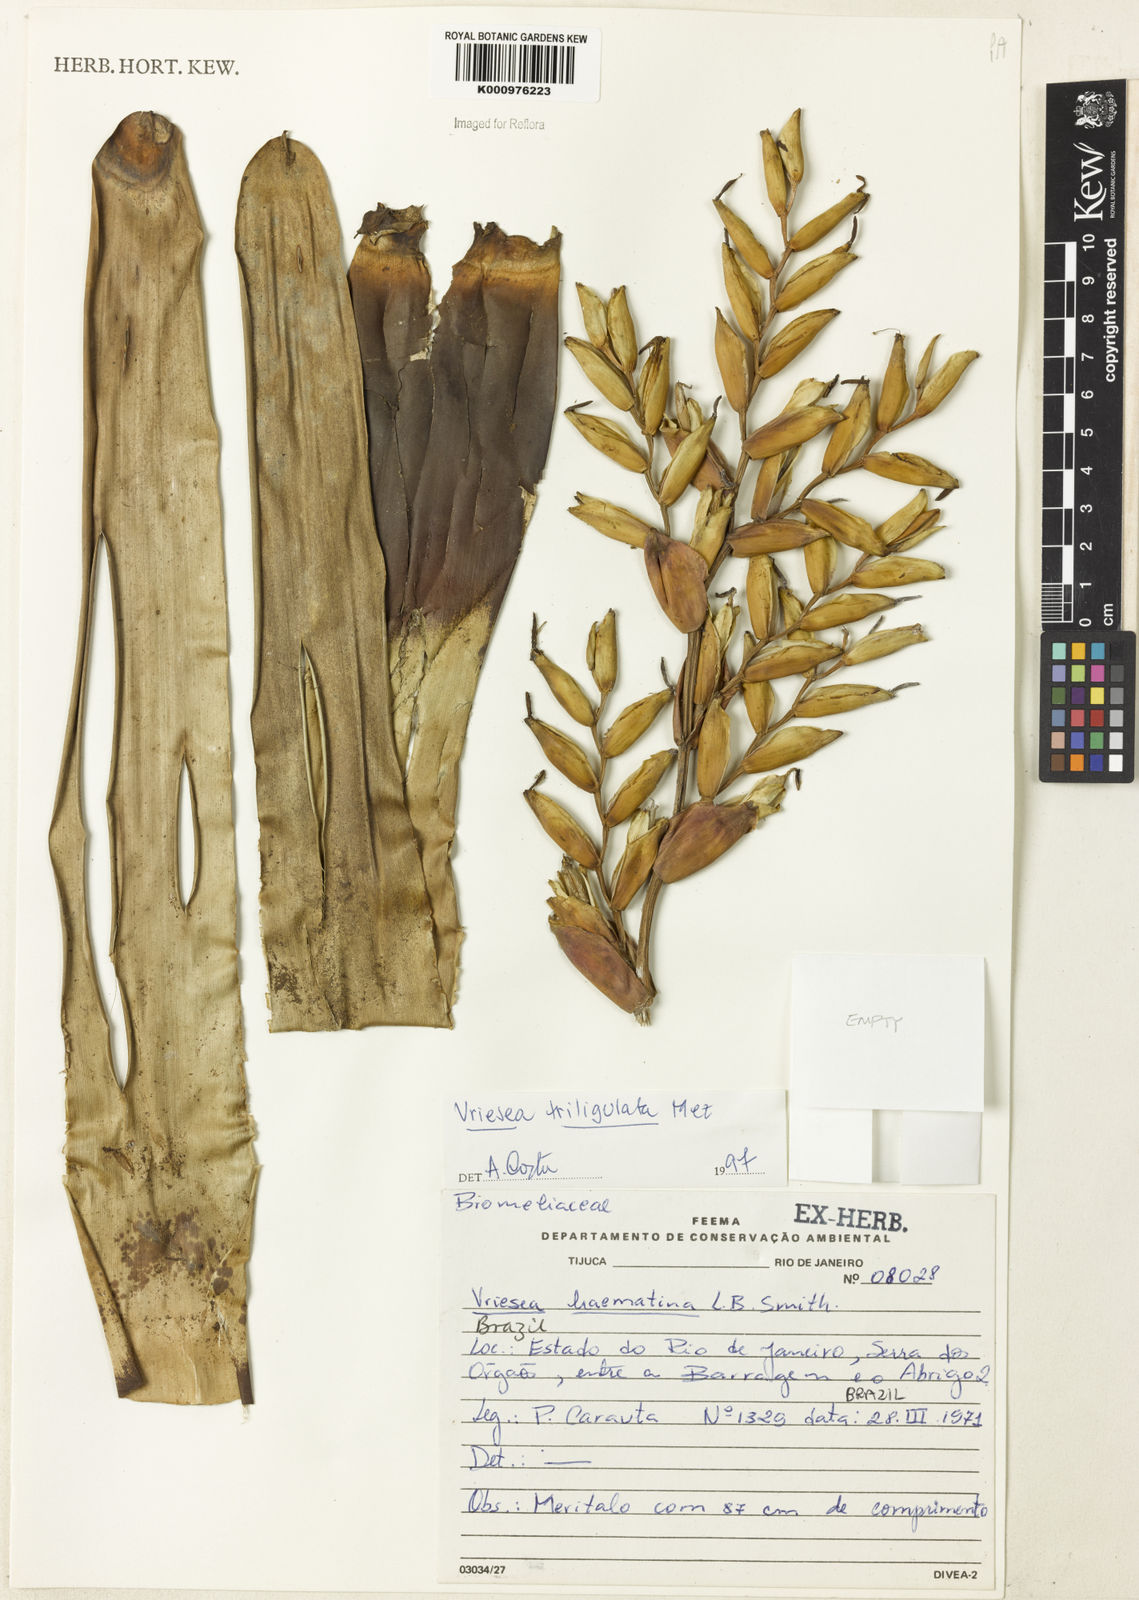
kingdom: Plantae
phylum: Tracheophyta
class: Liliopsida
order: Poales
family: Bromeliaceae
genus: Vriesea
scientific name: Vriesea triligulata
